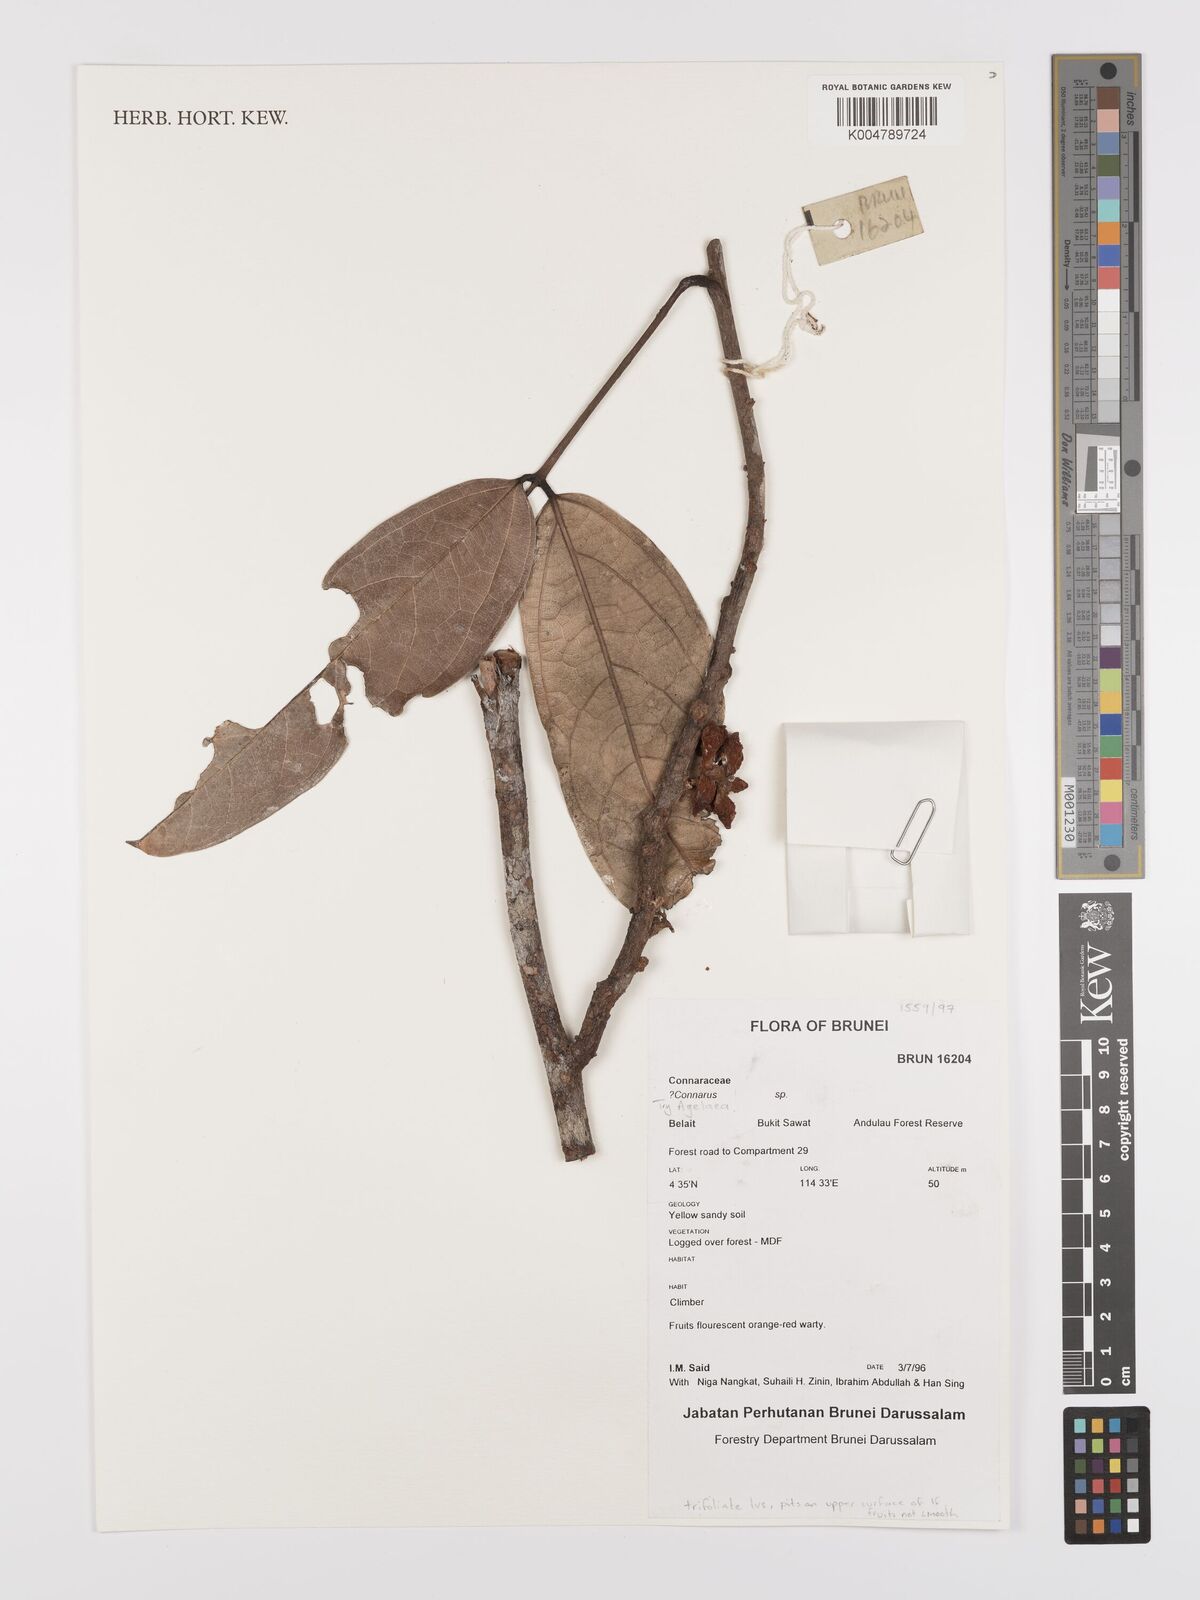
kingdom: Plantae
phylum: Tracheophyta
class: Magnoliopsida
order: Oxalidales
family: Connaraceae
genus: Agelaea
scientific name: Agelaea
